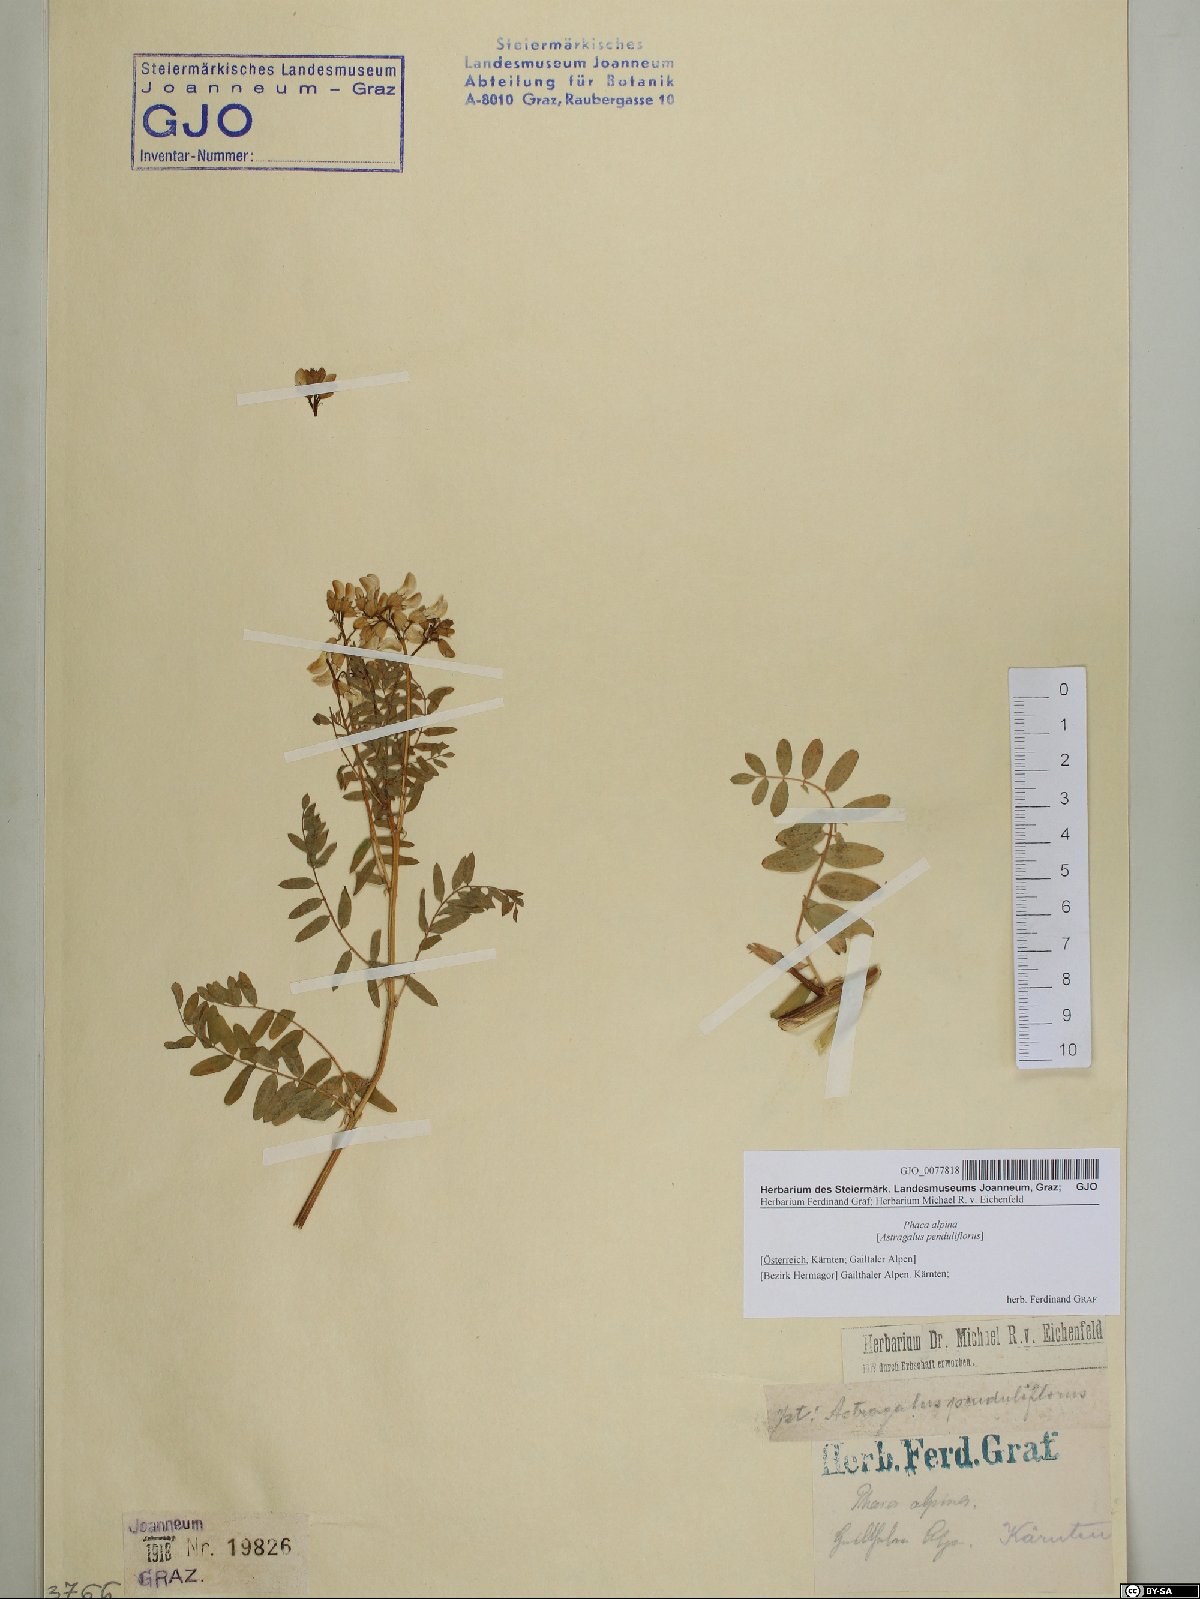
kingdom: Plantae
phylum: Tracheophyta
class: Magnoliopsida
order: Fabales
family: Fabaceae
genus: Astragalus
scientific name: Astragalus penduliflorus
